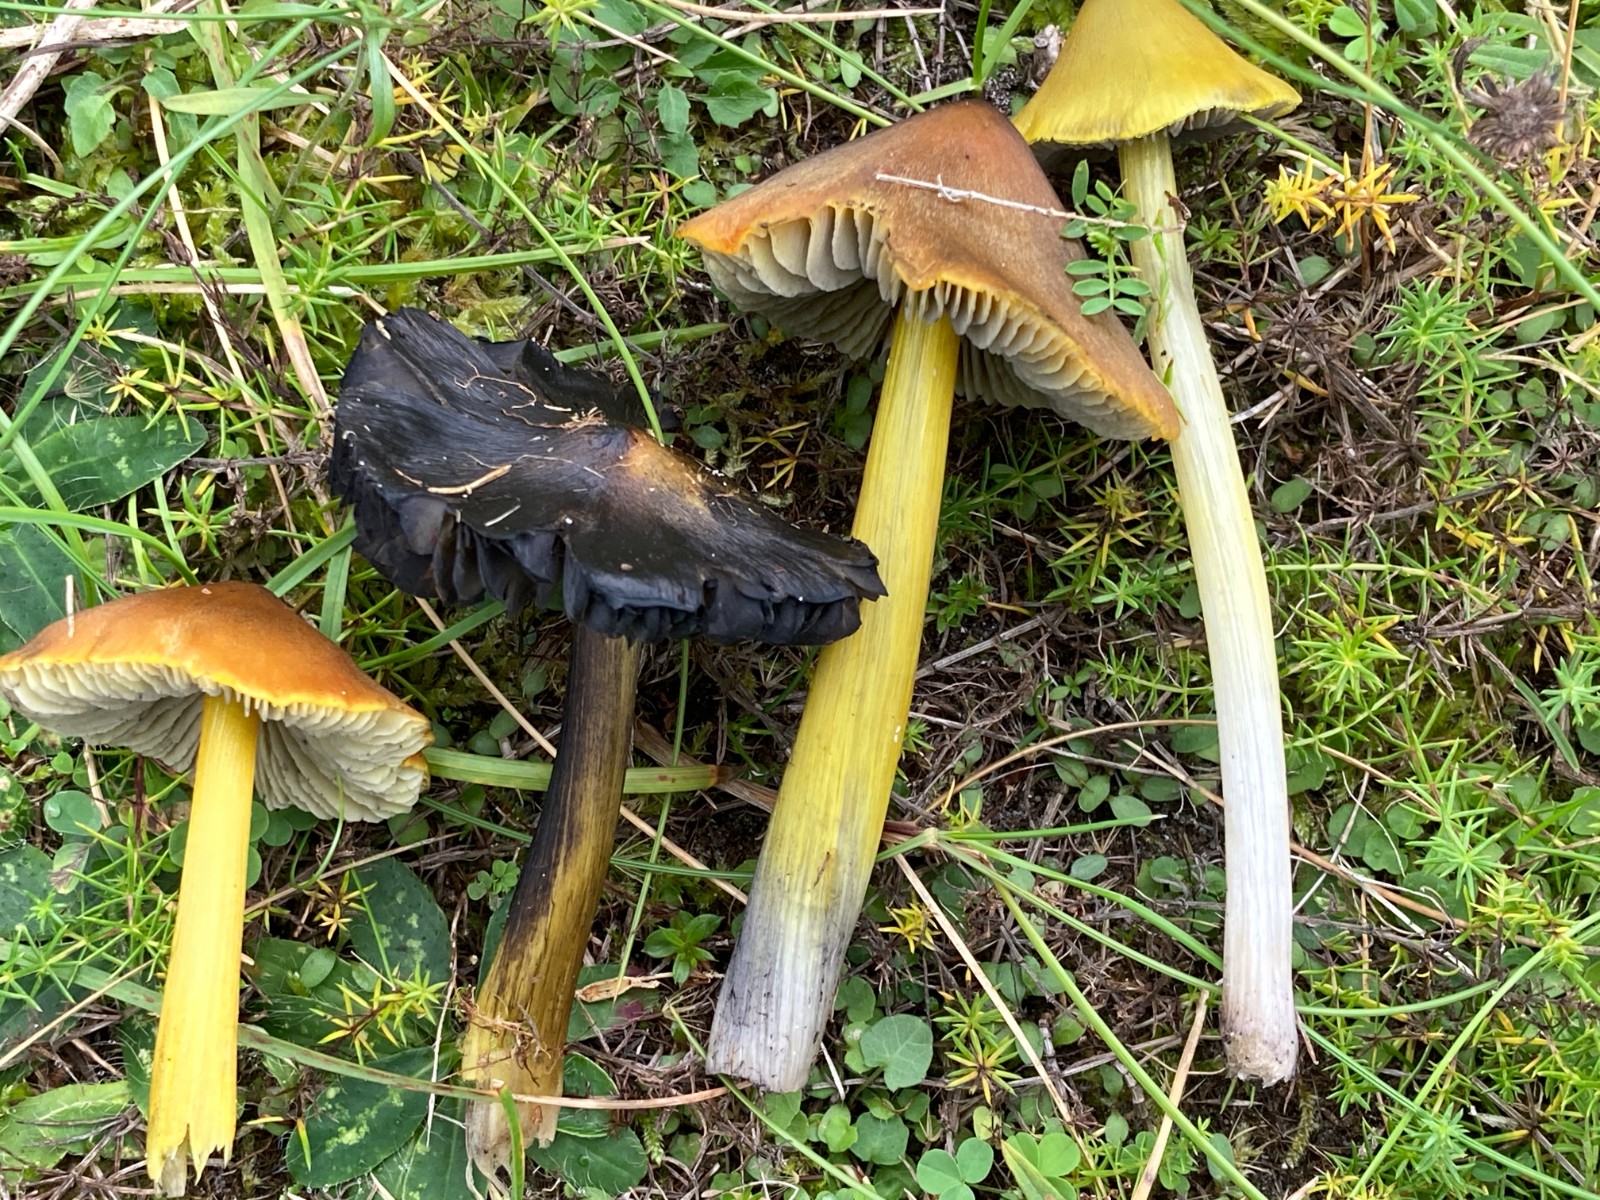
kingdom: Fungi
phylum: Basidiomycota
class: Agaricomycetes
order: Agaricales
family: Hygrophoraceae
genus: Hygrocybe
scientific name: Hygrocybe conica
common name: kegle-vokshat
